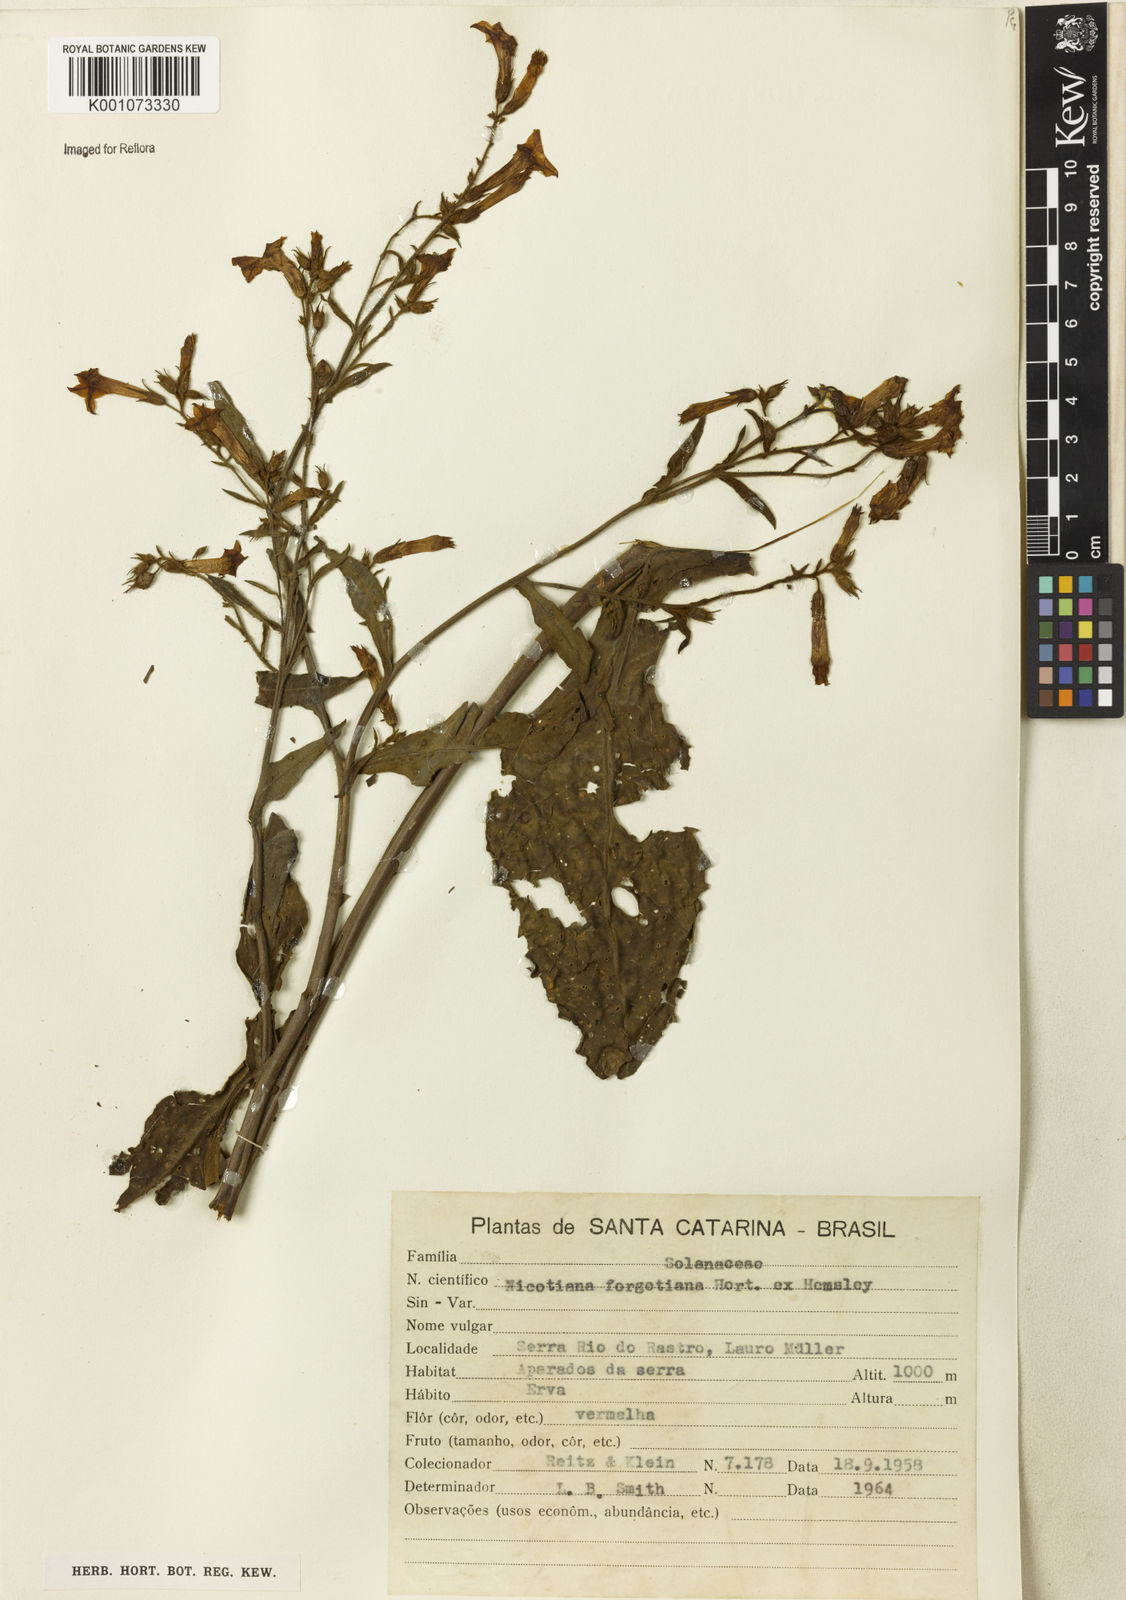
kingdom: Plantae
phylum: Tracheophyta
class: Magnoliopsida
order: Solanales
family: Solanaceae
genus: Nicotiana
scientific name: Nicotiana
